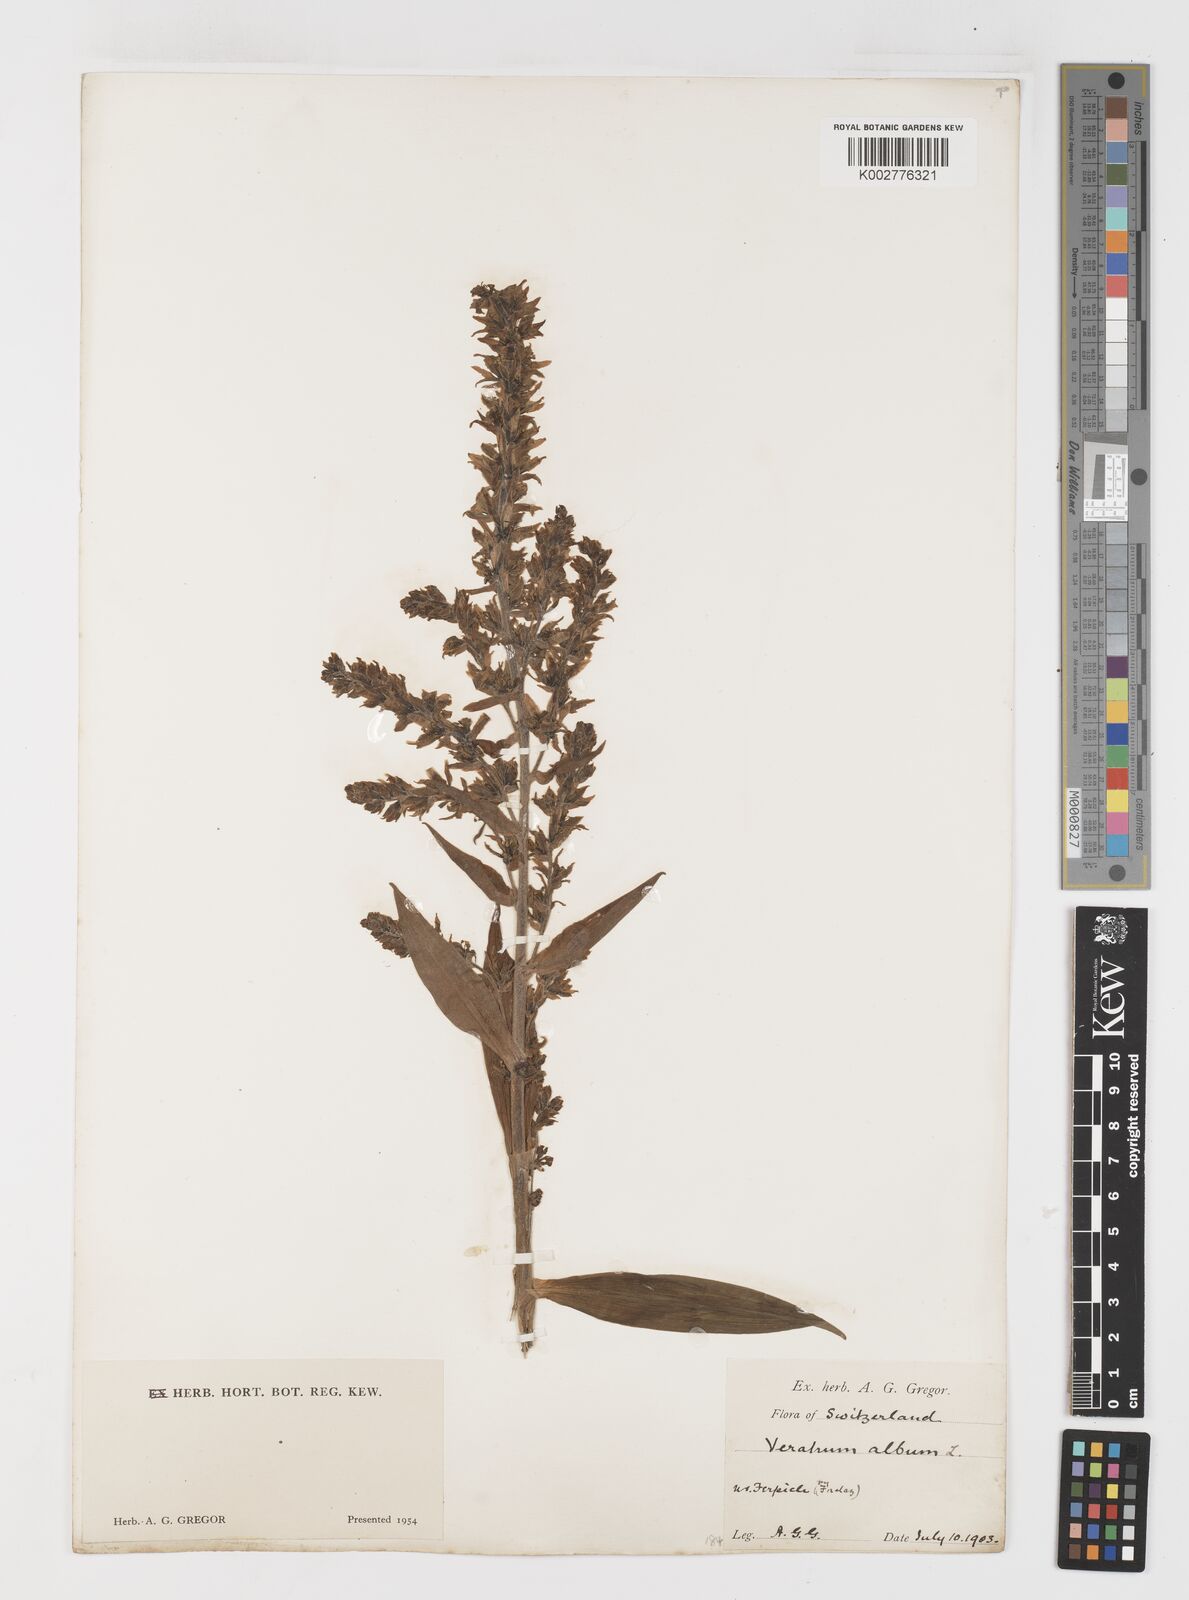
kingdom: Plantae
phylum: Tracheophyta
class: Liliopsida
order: Liliales
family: Melanthiaceae
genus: Veratrum
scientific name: Veratrum album
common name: White veratrum
